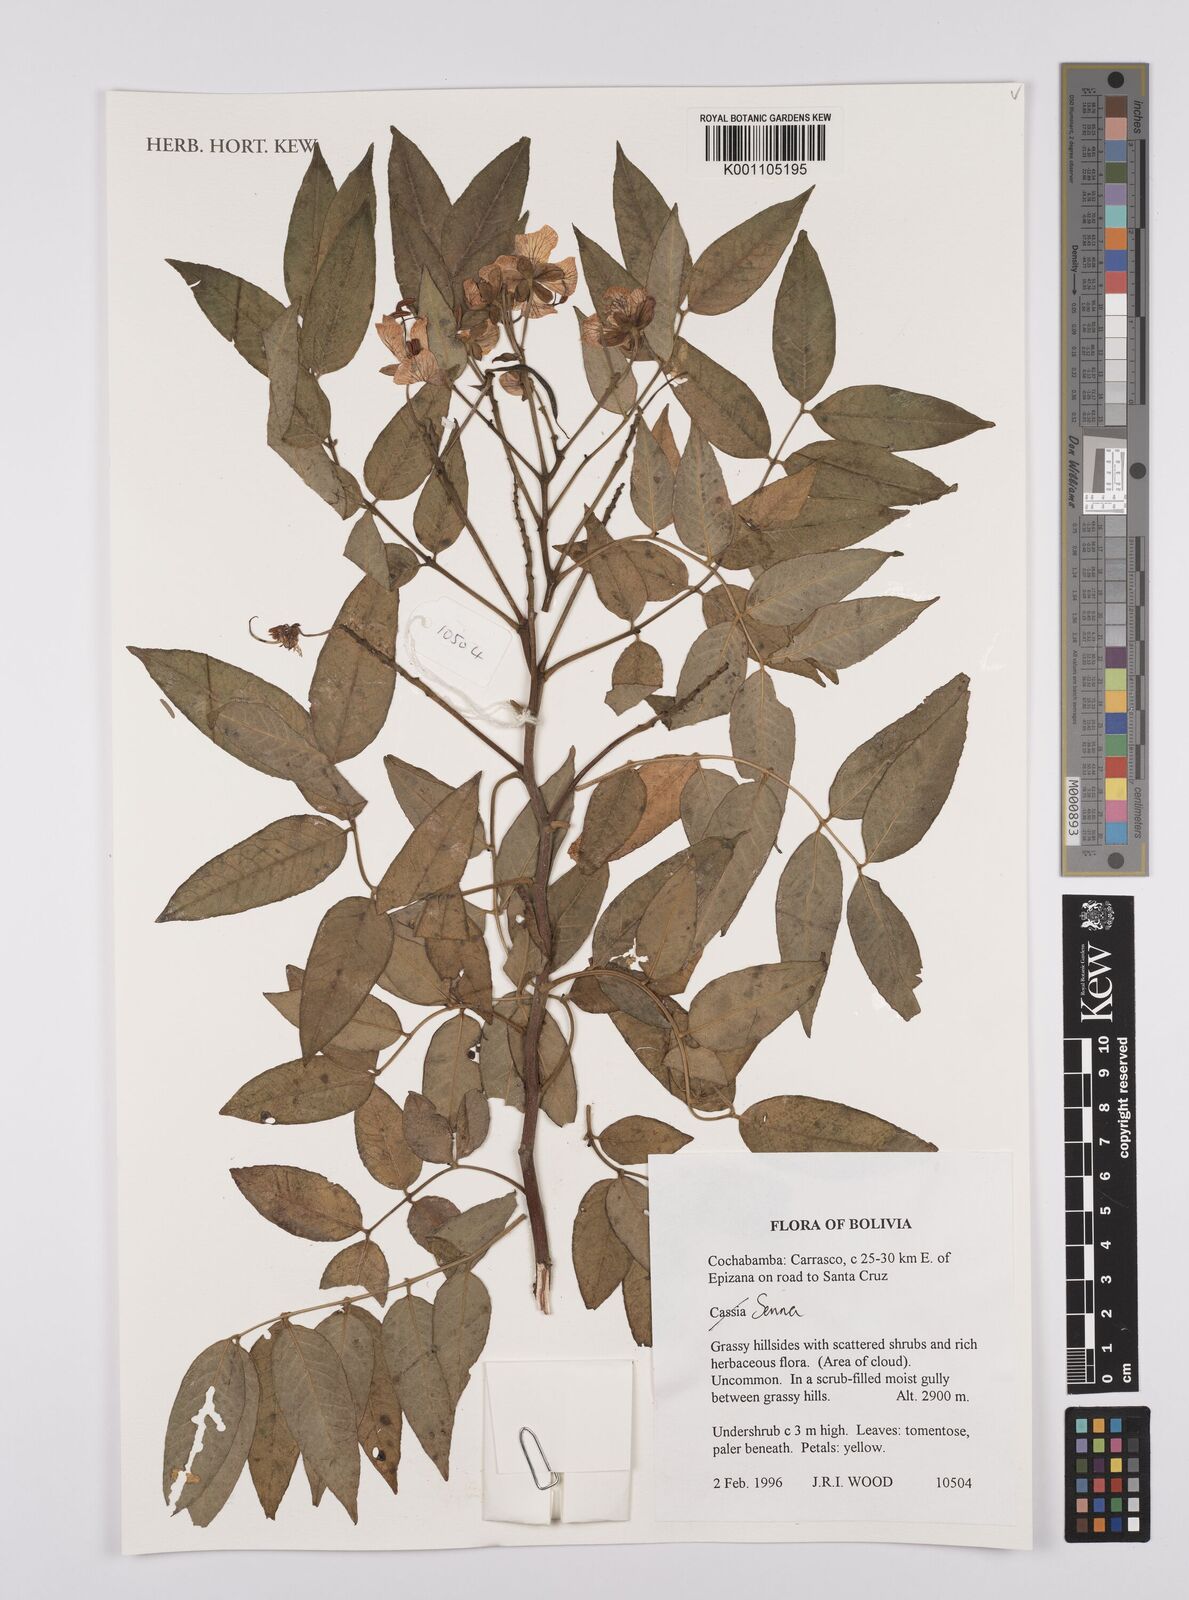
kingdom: Plantae
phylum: Tracheophyta
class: Magnoliopsida
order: Fabales
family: Fabaceae
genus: Senna
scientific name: Senna
